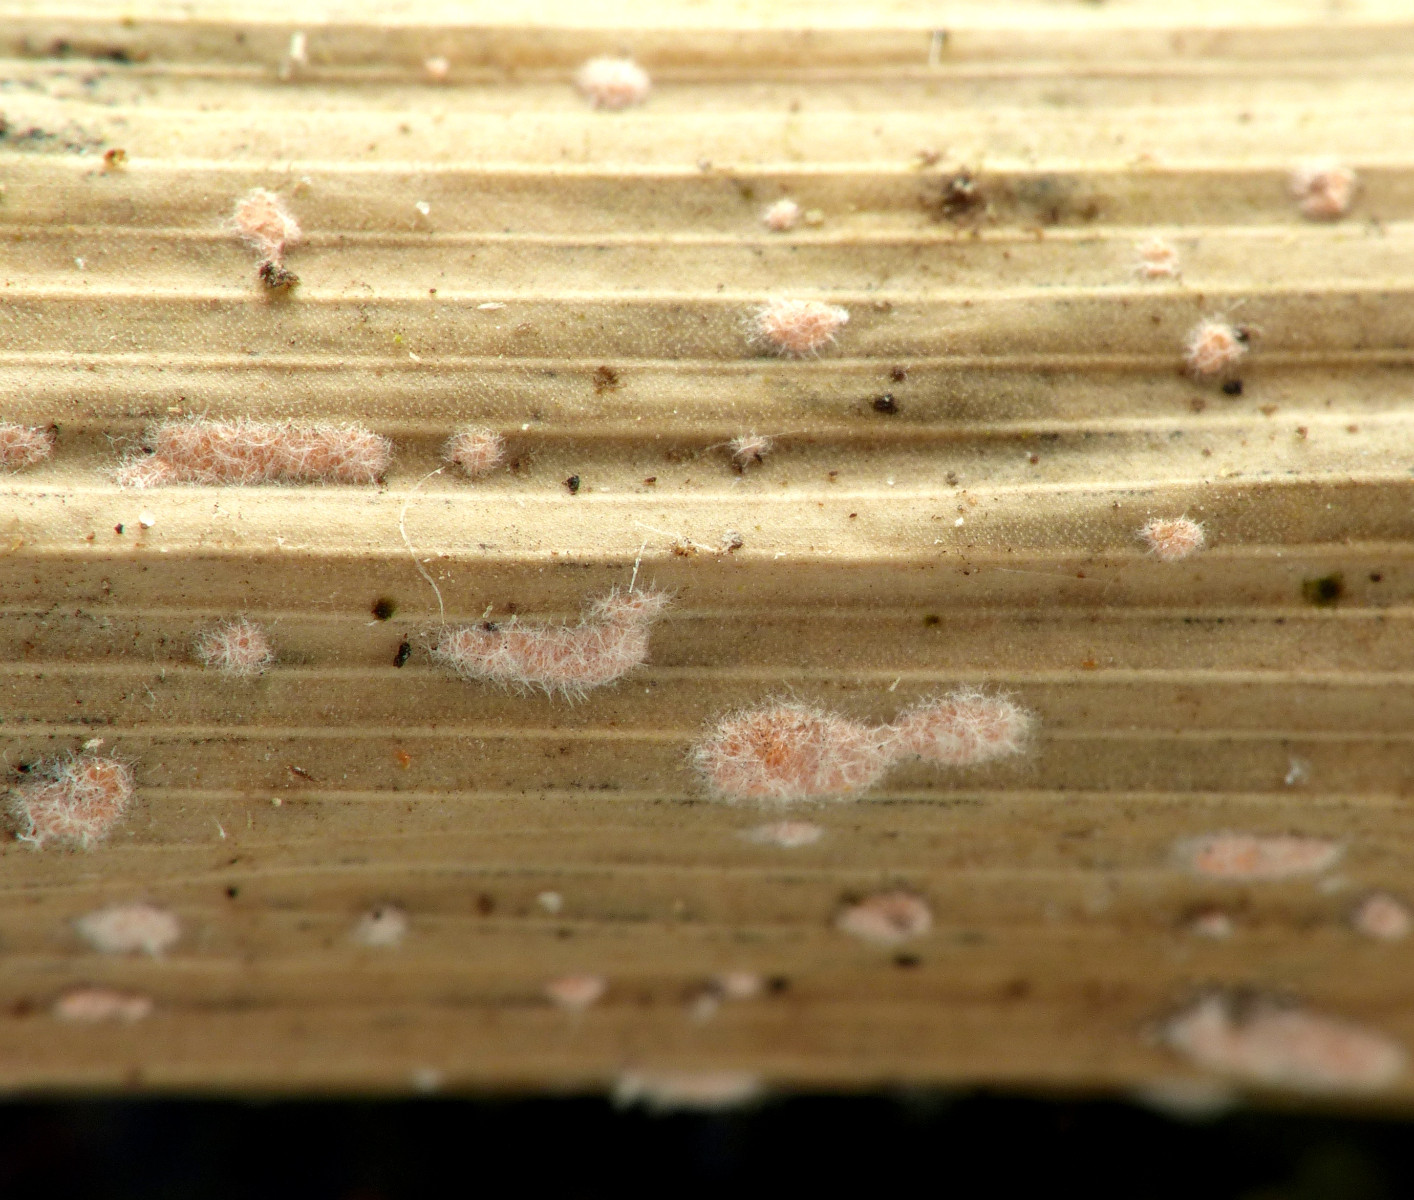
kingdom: Fungi
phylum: Ascomycota
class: Sordariomycetes
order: Hypocreales
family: Nectriaceae
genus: Volutella
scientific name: Volutella arundinis
